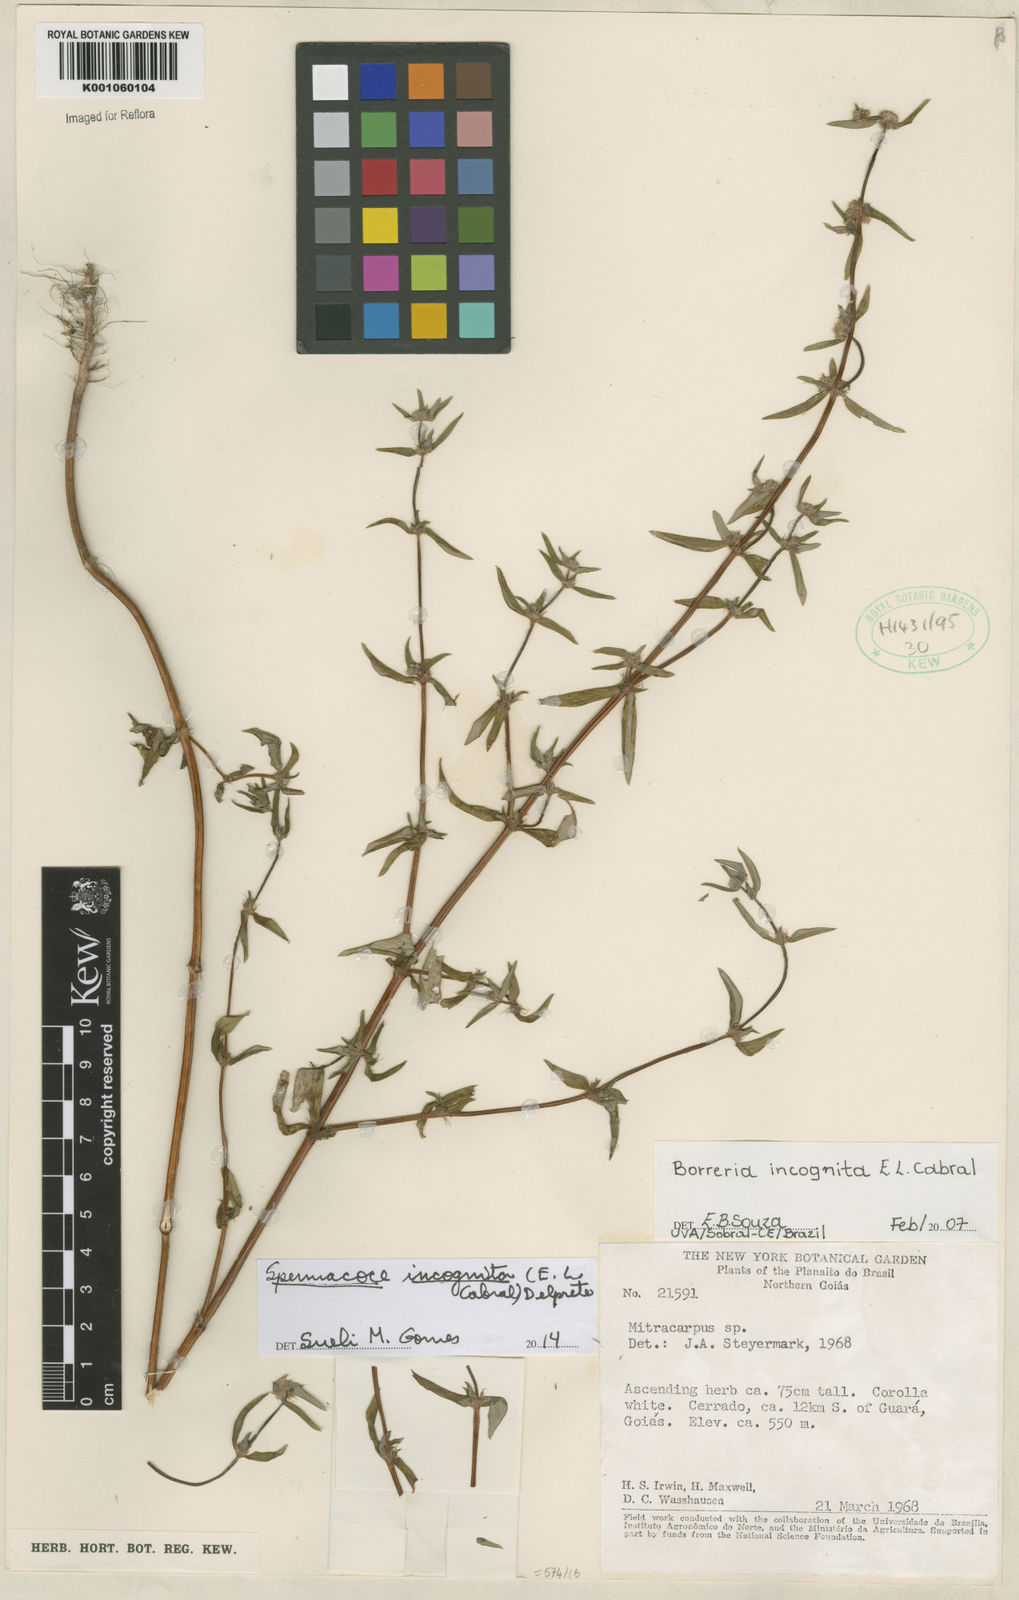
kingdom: Plantae
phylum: Tracheophyta
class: Magnoliopsida
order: Gentianales
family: Rubiaceae
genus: Spermacoce
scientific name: Spermacoce incognita
